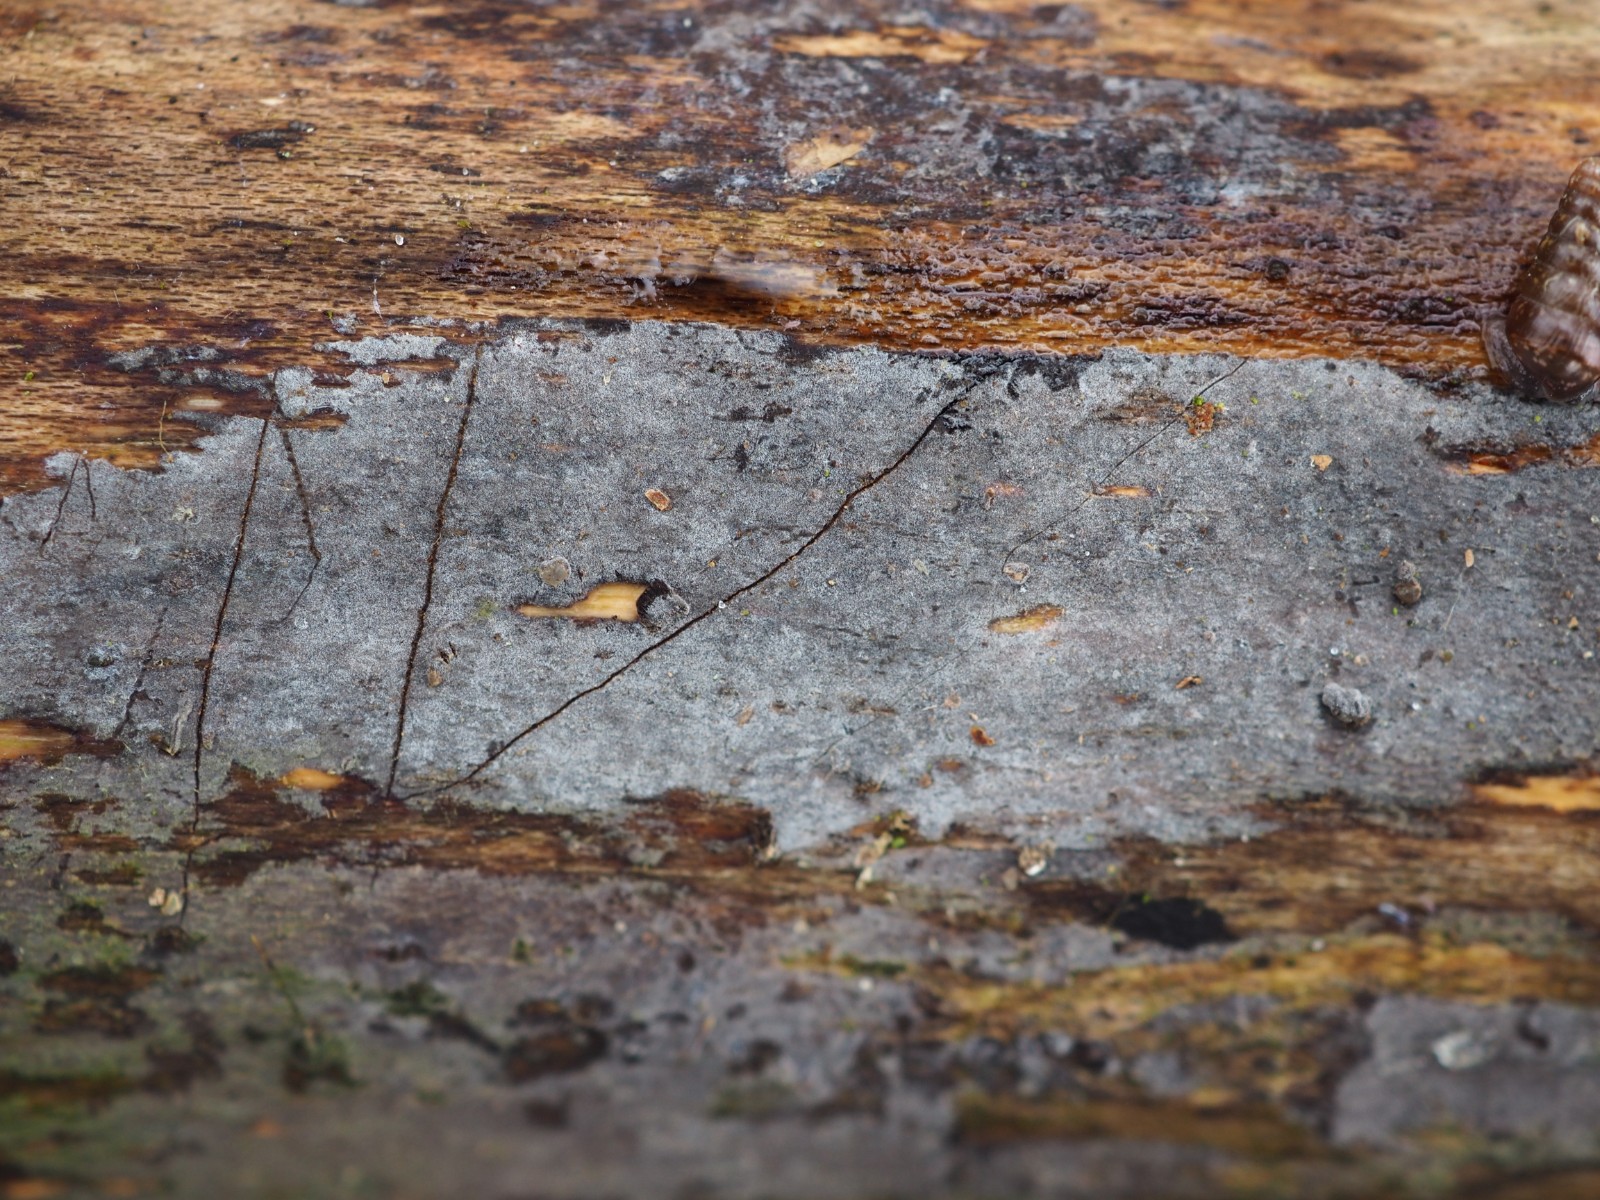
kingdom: Fungi
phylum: Basidiomycota
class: Agaricomycetes
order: Russulales
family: Peniophoraceae
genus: Peniophora
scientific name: Peniophora
